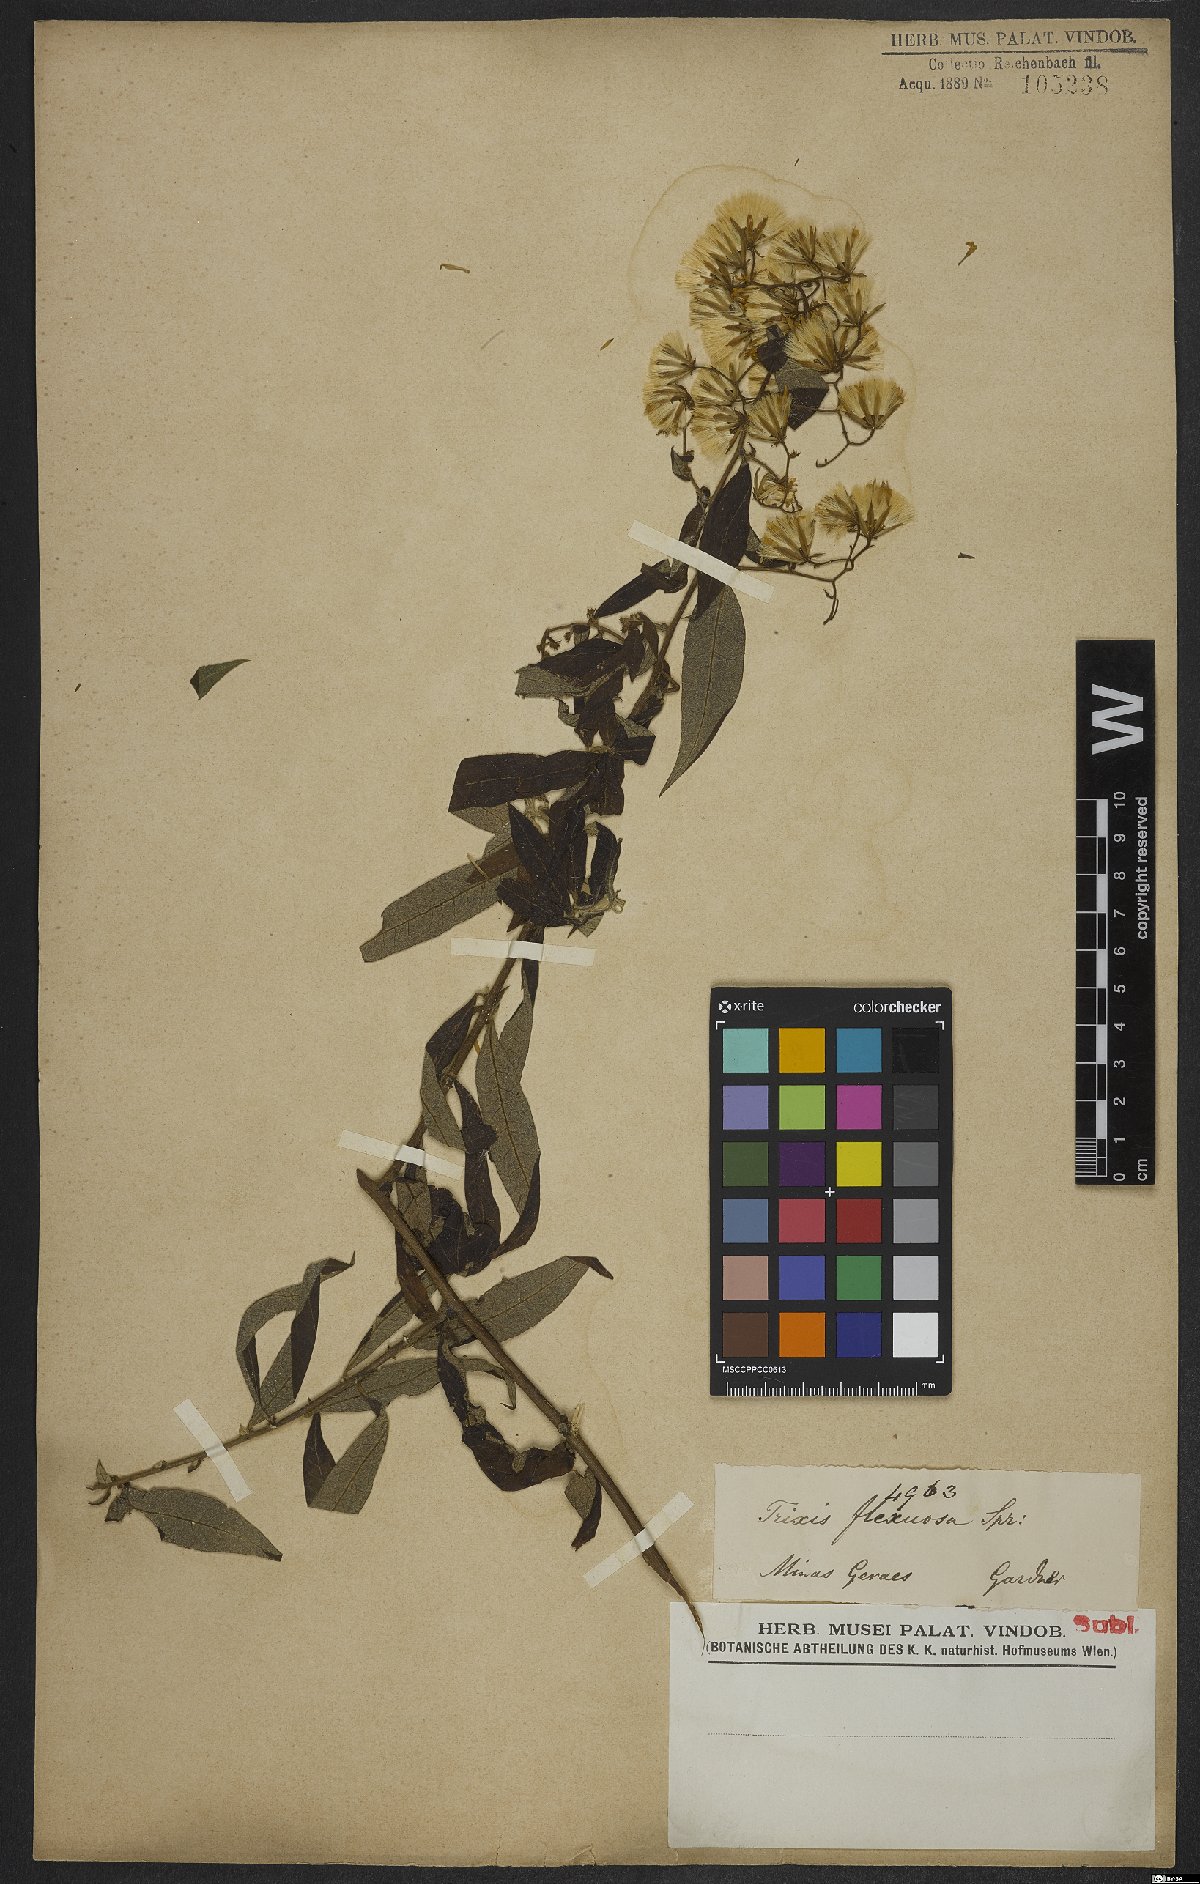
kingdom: Plantae
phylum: Tracheophyta
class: Magnoliopsida
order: Asterales
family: Asteraceae
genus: Trixis
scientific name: Trixis divaricata
